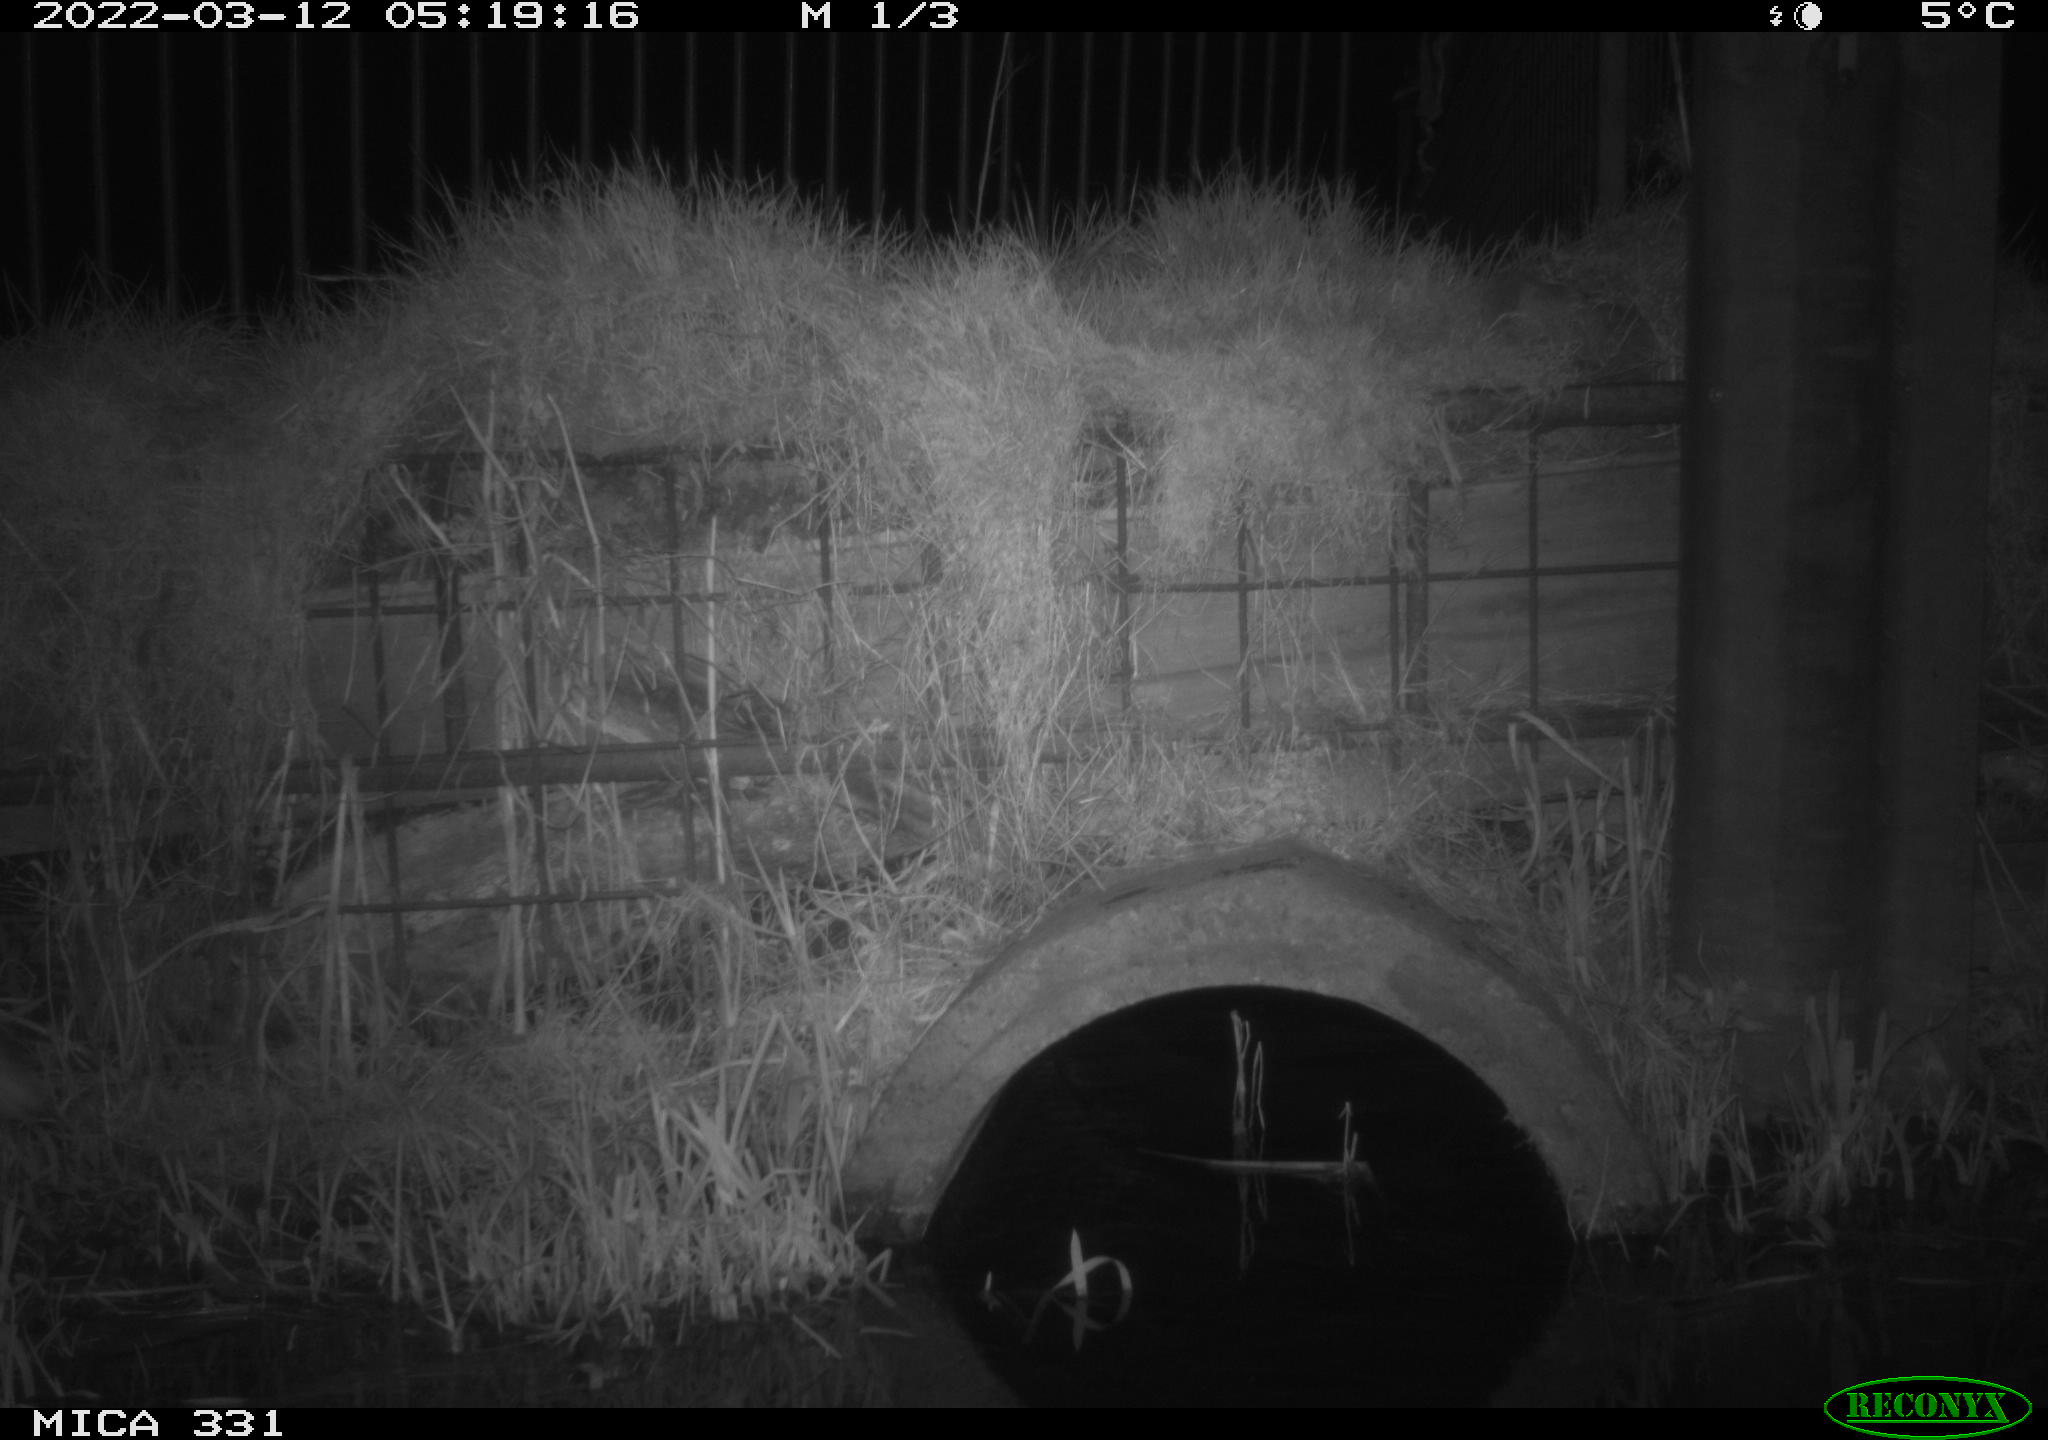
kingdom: Animalia
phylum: Chordata
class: Mammalia
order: Carnivora
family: Canidae
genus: Vulpes
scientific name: Vulpes vulpes
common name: Red fox
